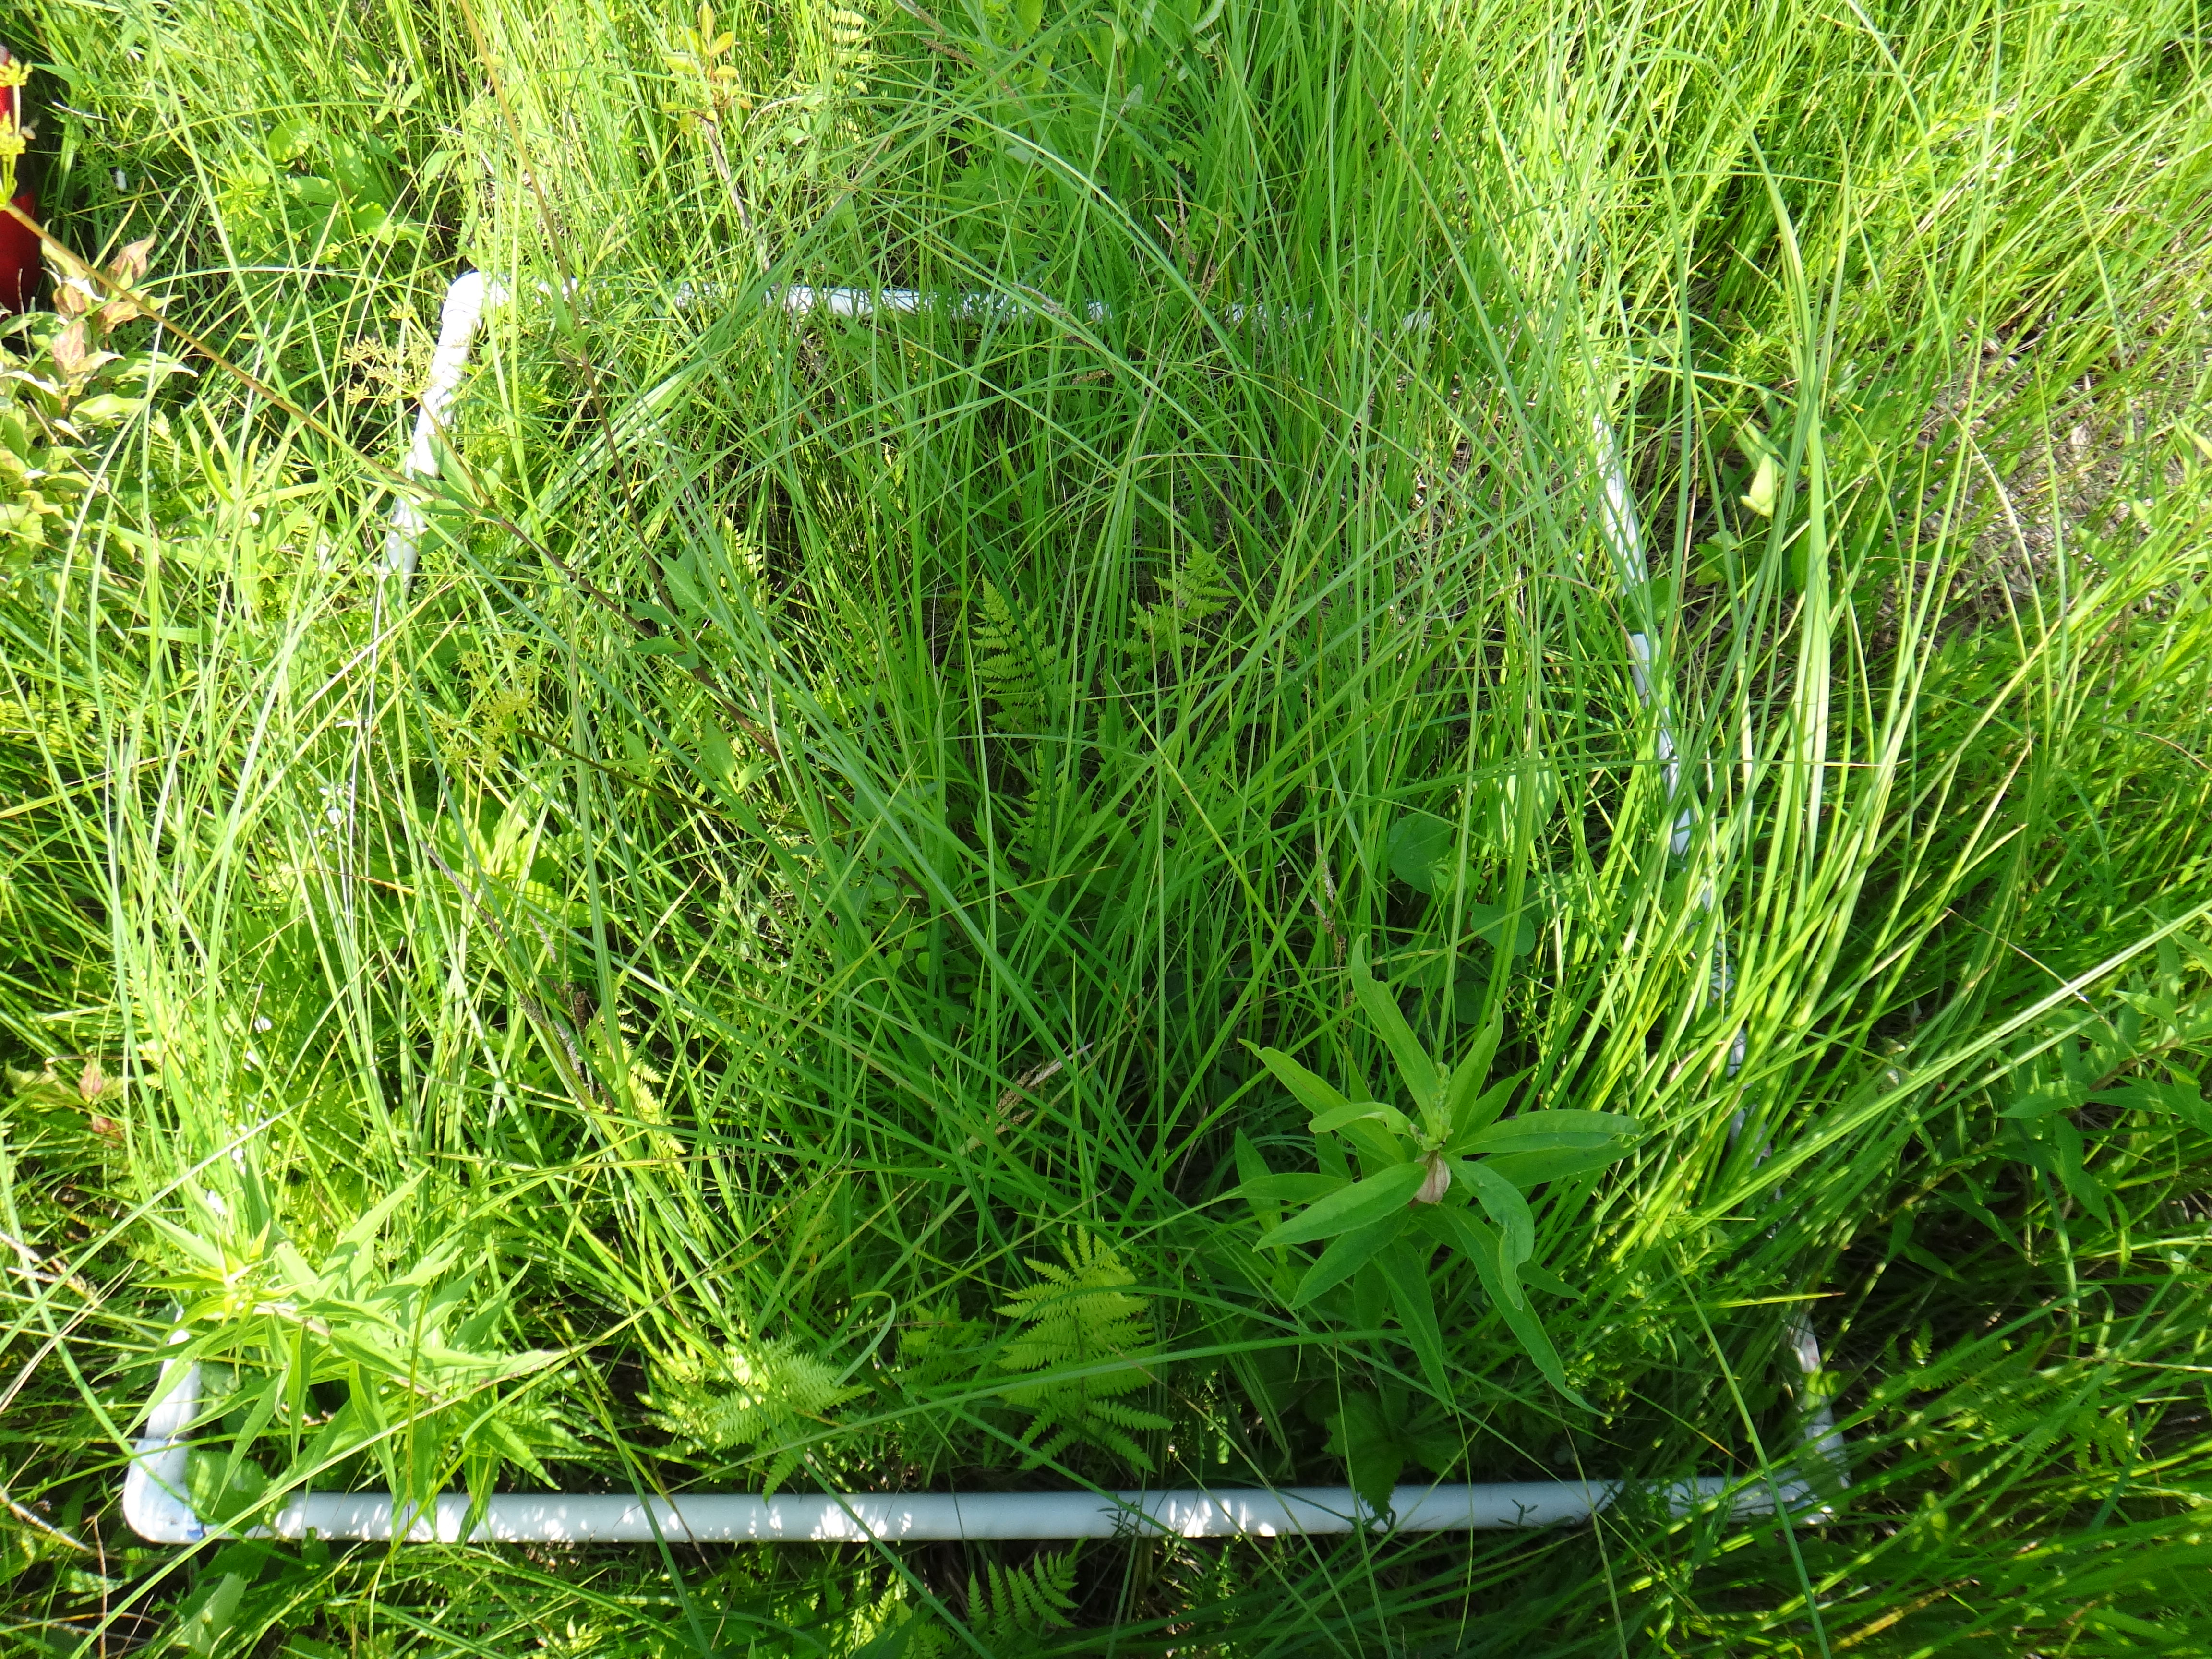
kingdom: Plantae
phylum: Tracheophyta
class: Magnoliopsida
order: Cornales
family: Cornaceae
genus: Cornus
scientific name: Cornus foemina
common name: Swamp dogwood
